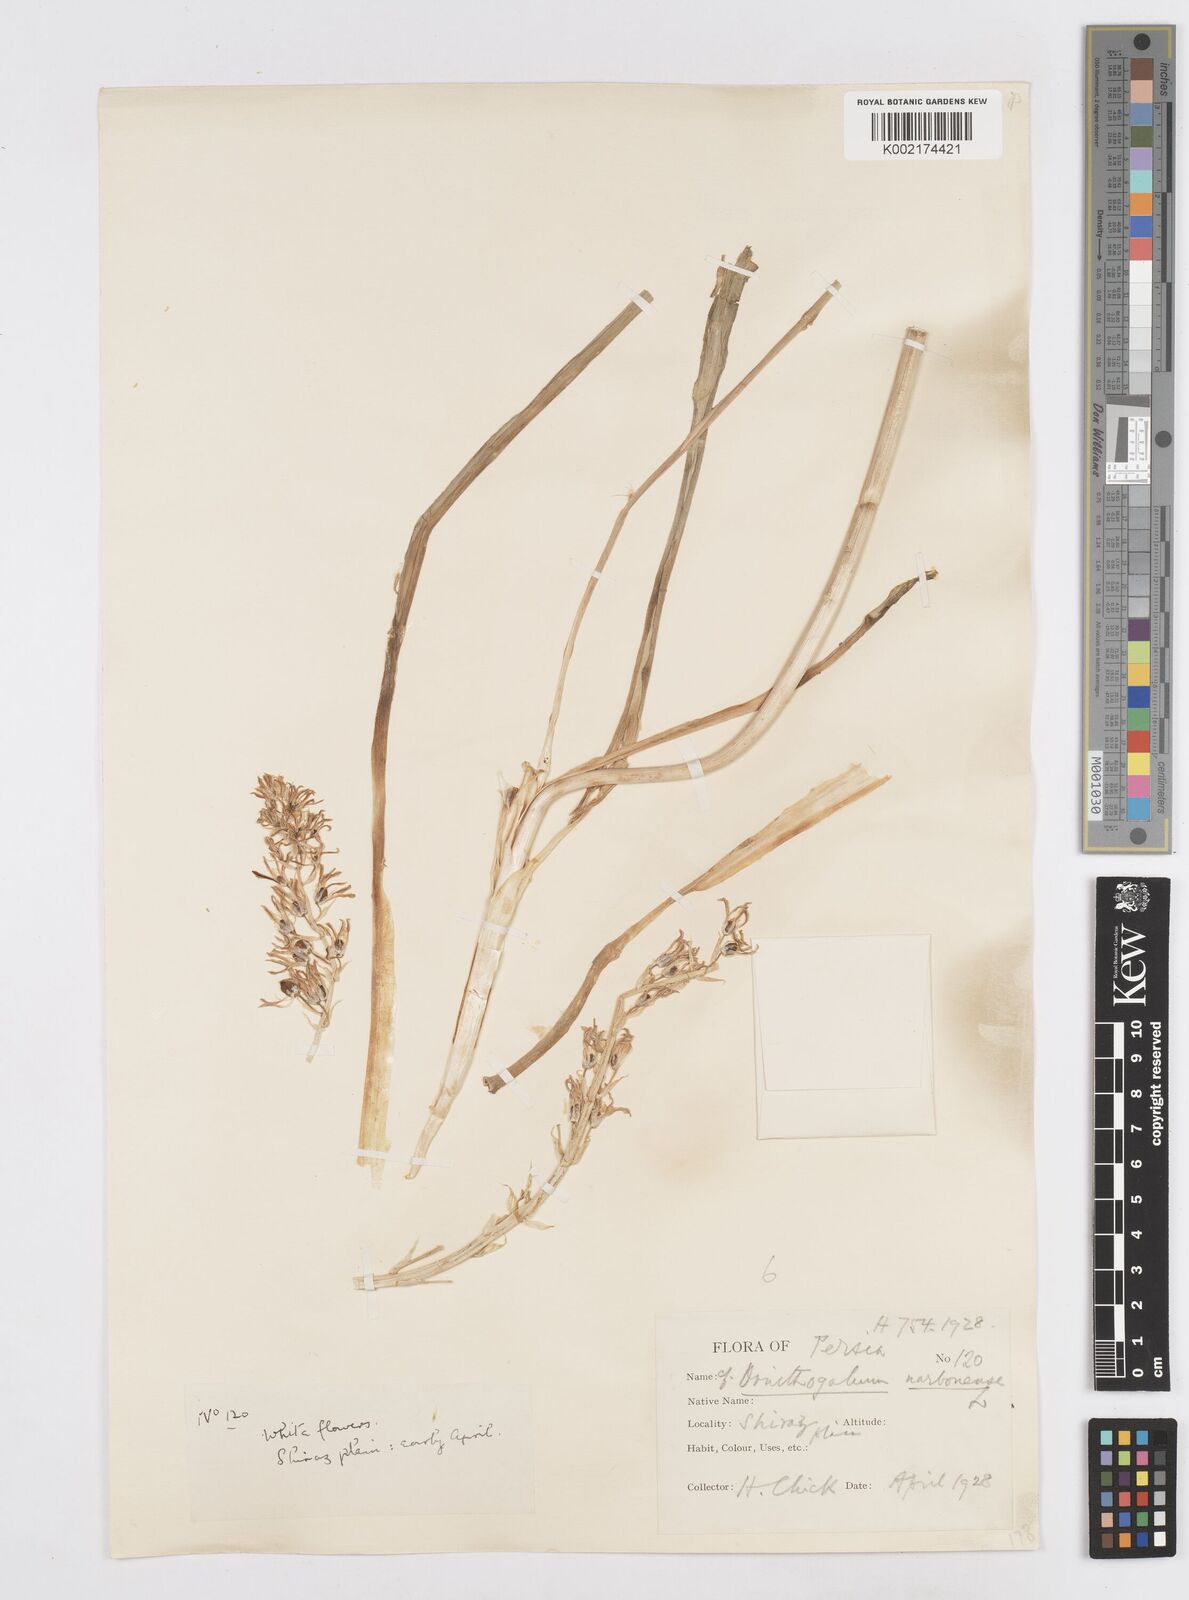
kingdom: Plantae
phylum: Tracheophyta
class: Liliopsida
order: Asparagales
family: Asparagaceae
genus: Ornithogalum
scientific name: Ornithogalum narbonense
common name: Bath-asparagus
